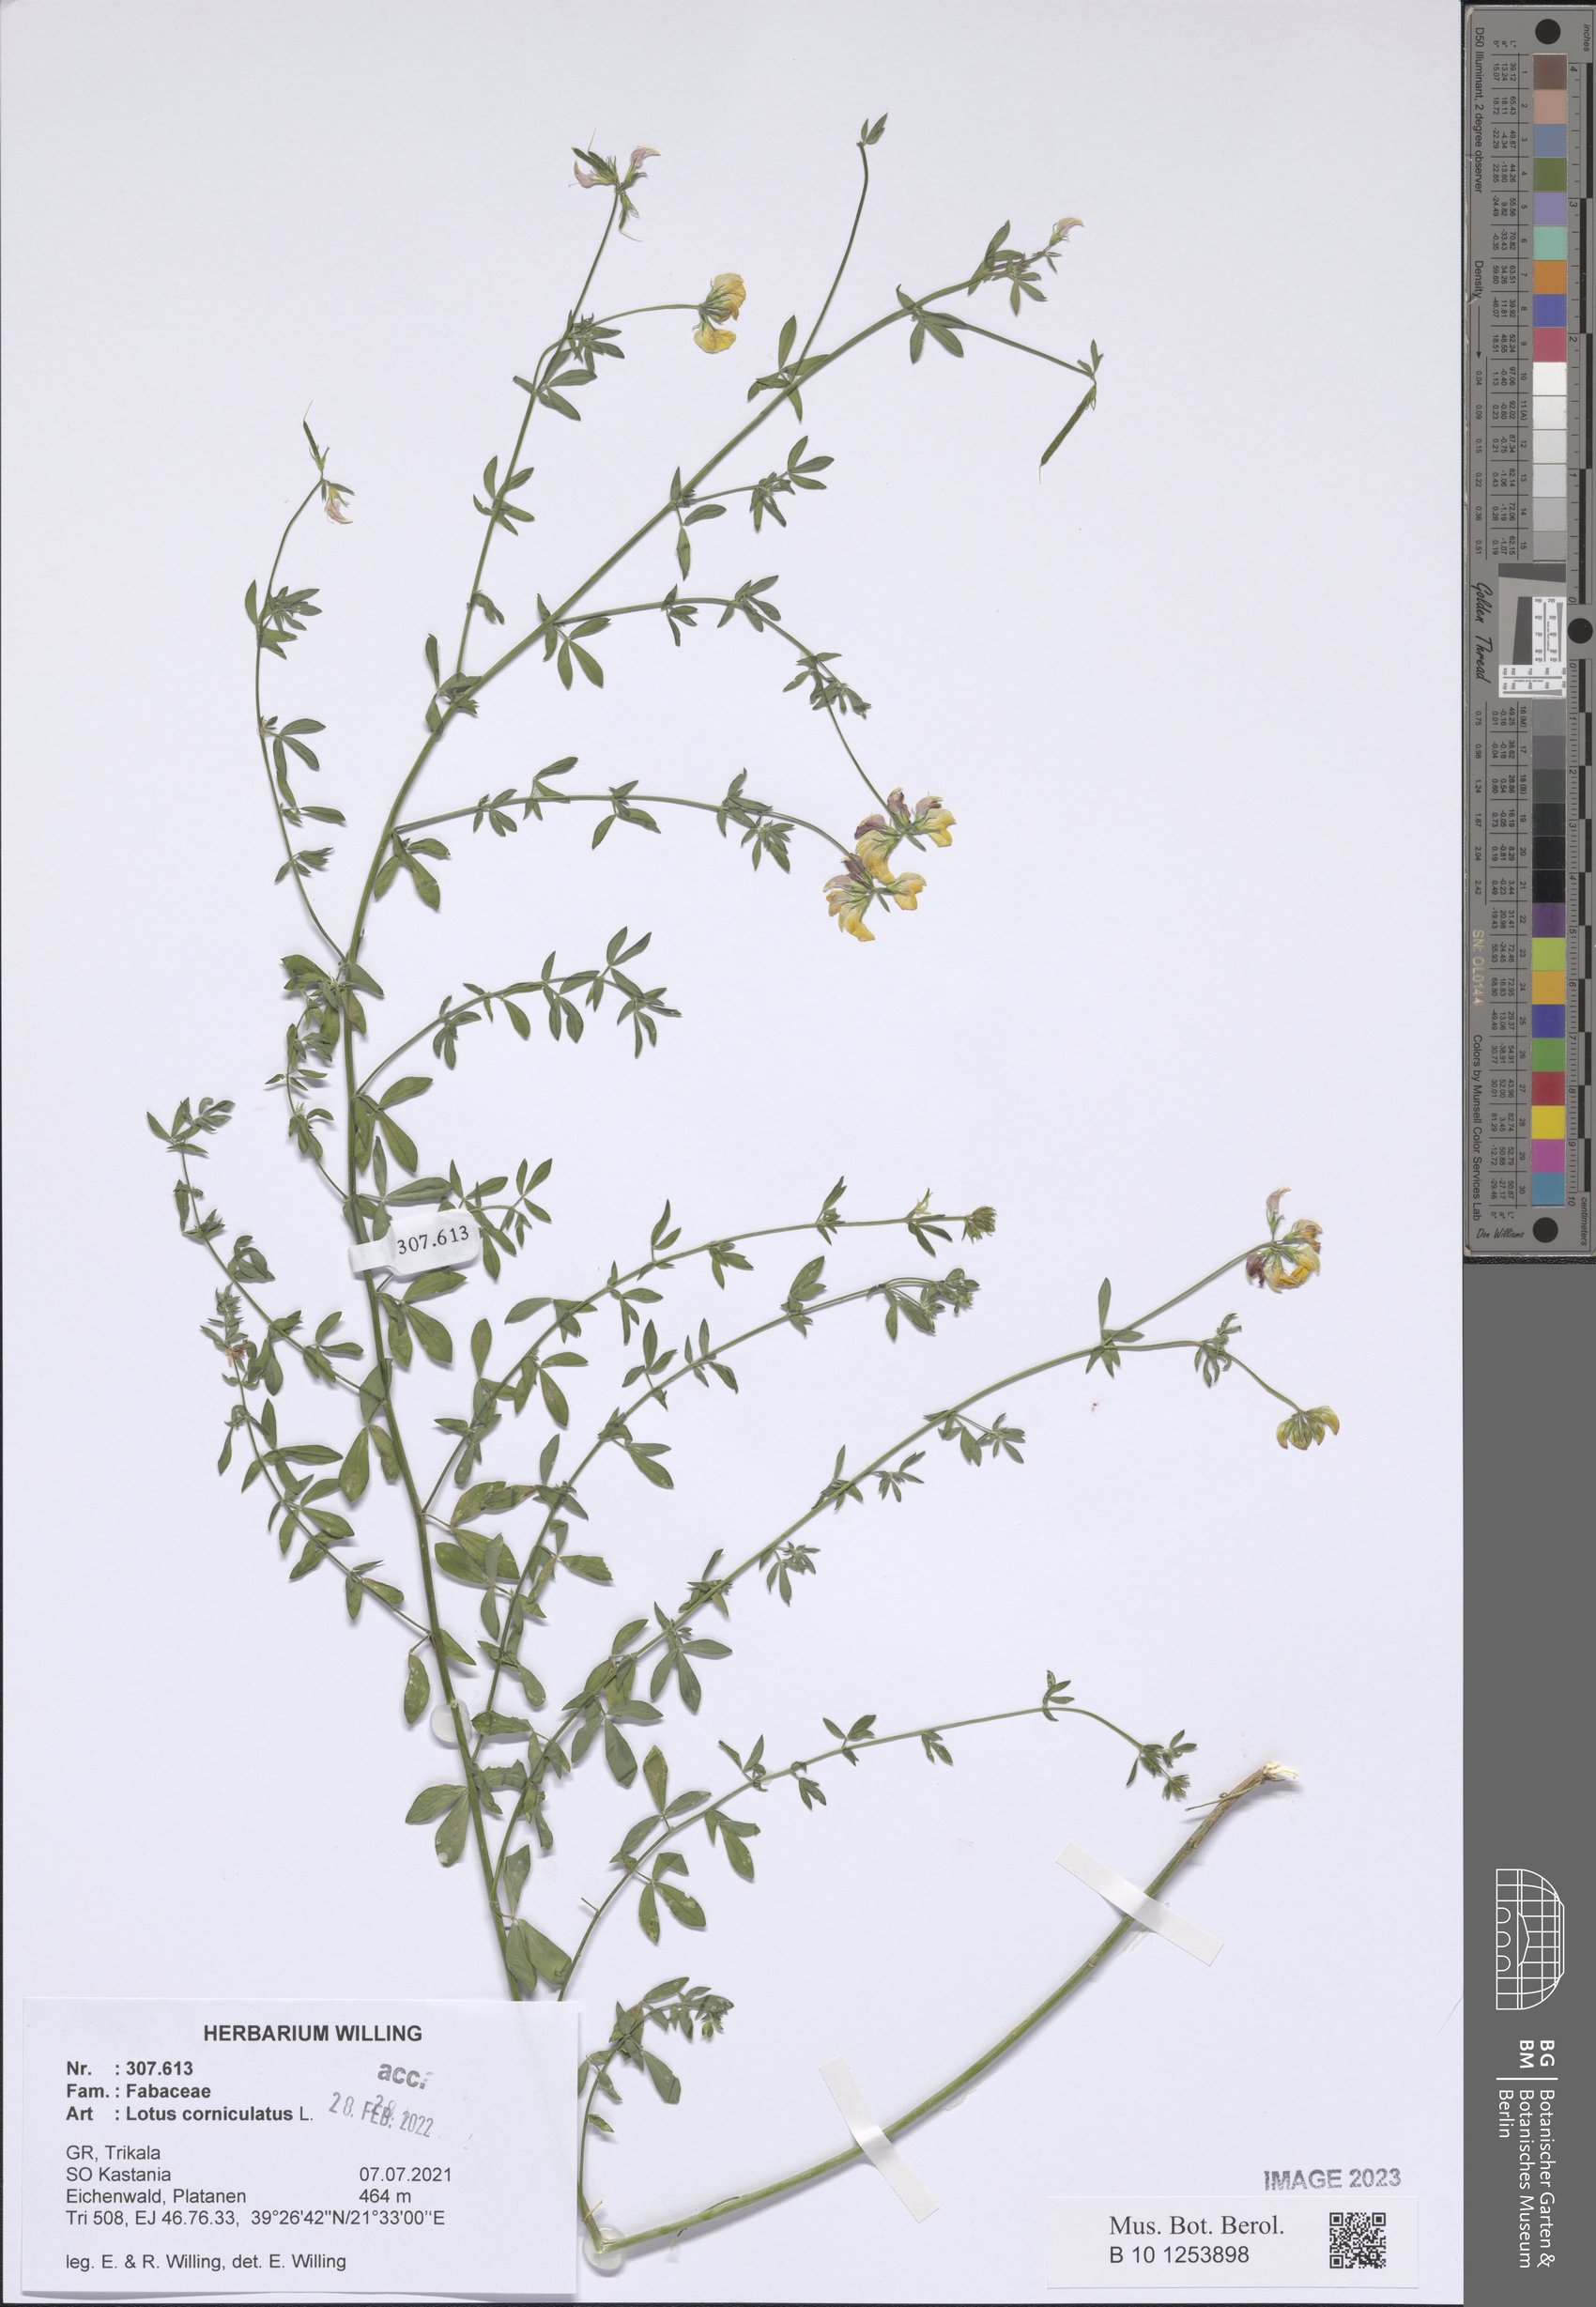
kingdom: Plantae
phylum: Tracheophyta
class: Magnoliopsida
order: Fabales
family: Fabaceae
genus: Lotus
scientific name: Lotus corniculatus
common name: Common bird's-foot-trefoil
